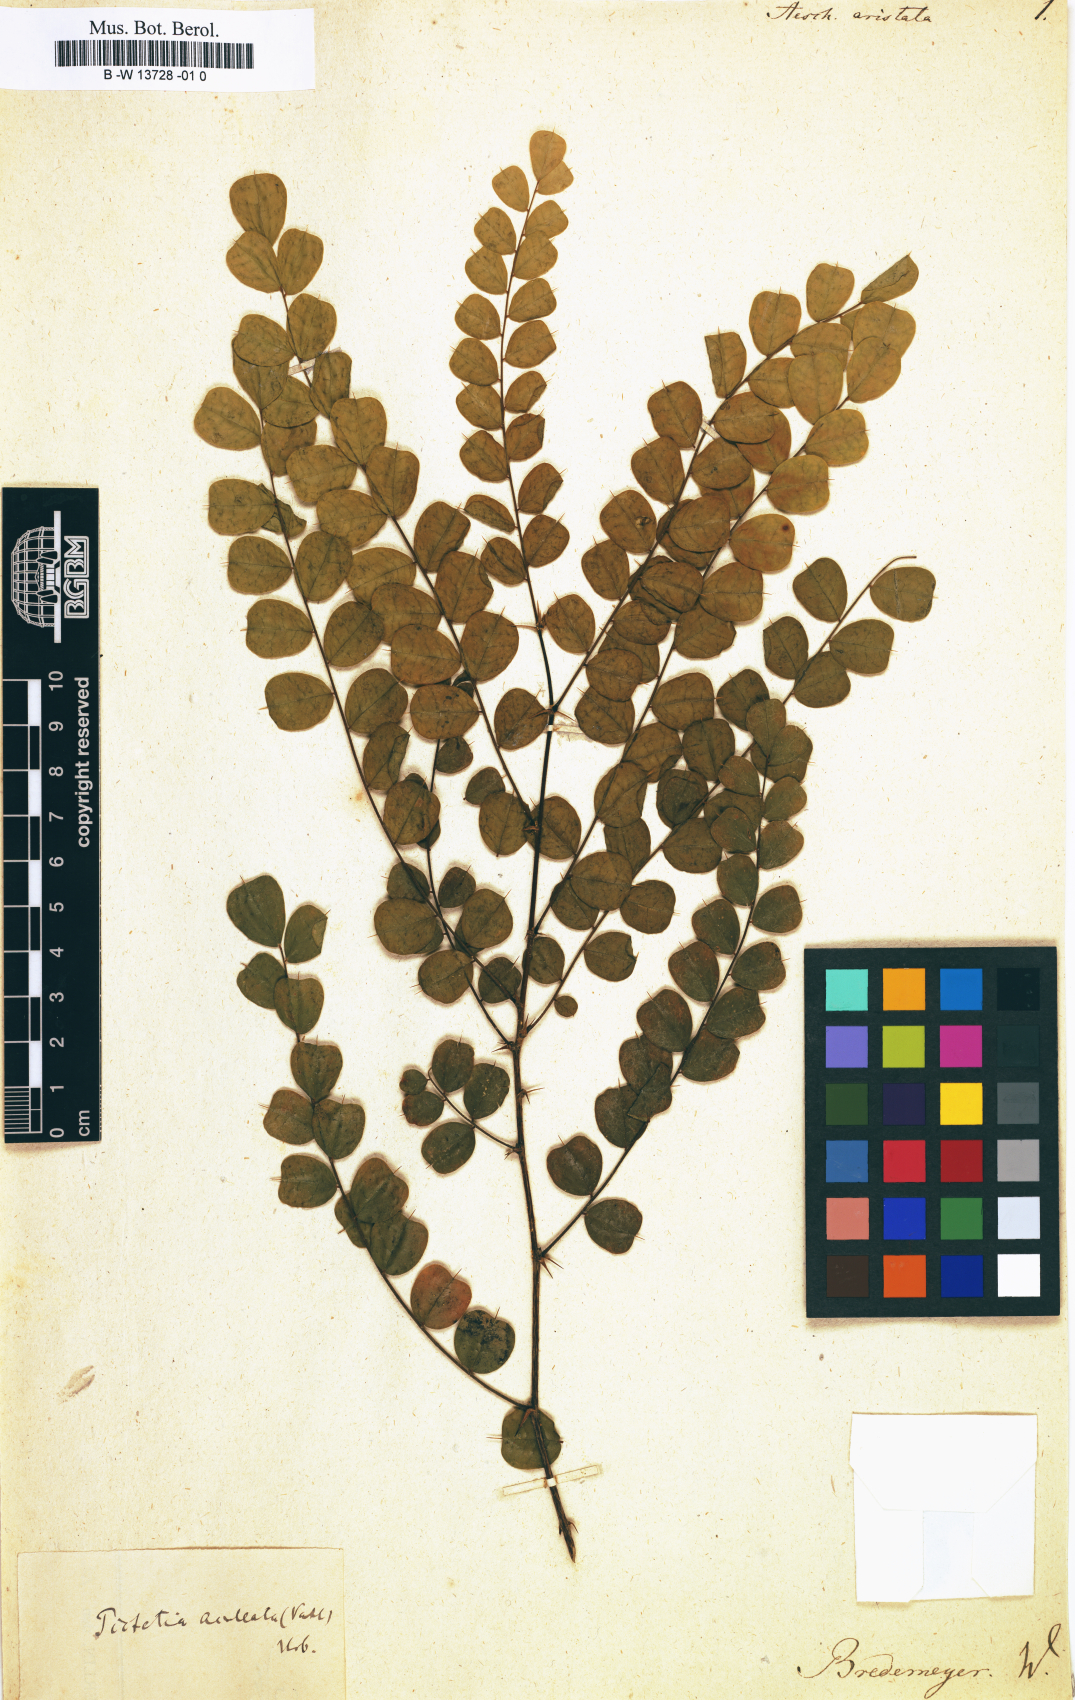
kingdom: Plantae
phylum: Tracheophyta
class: Magnoliopsida
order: Fabales
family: Fabaceae
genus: Pictetia
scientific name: Pictetia aculeata
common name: Fustic
